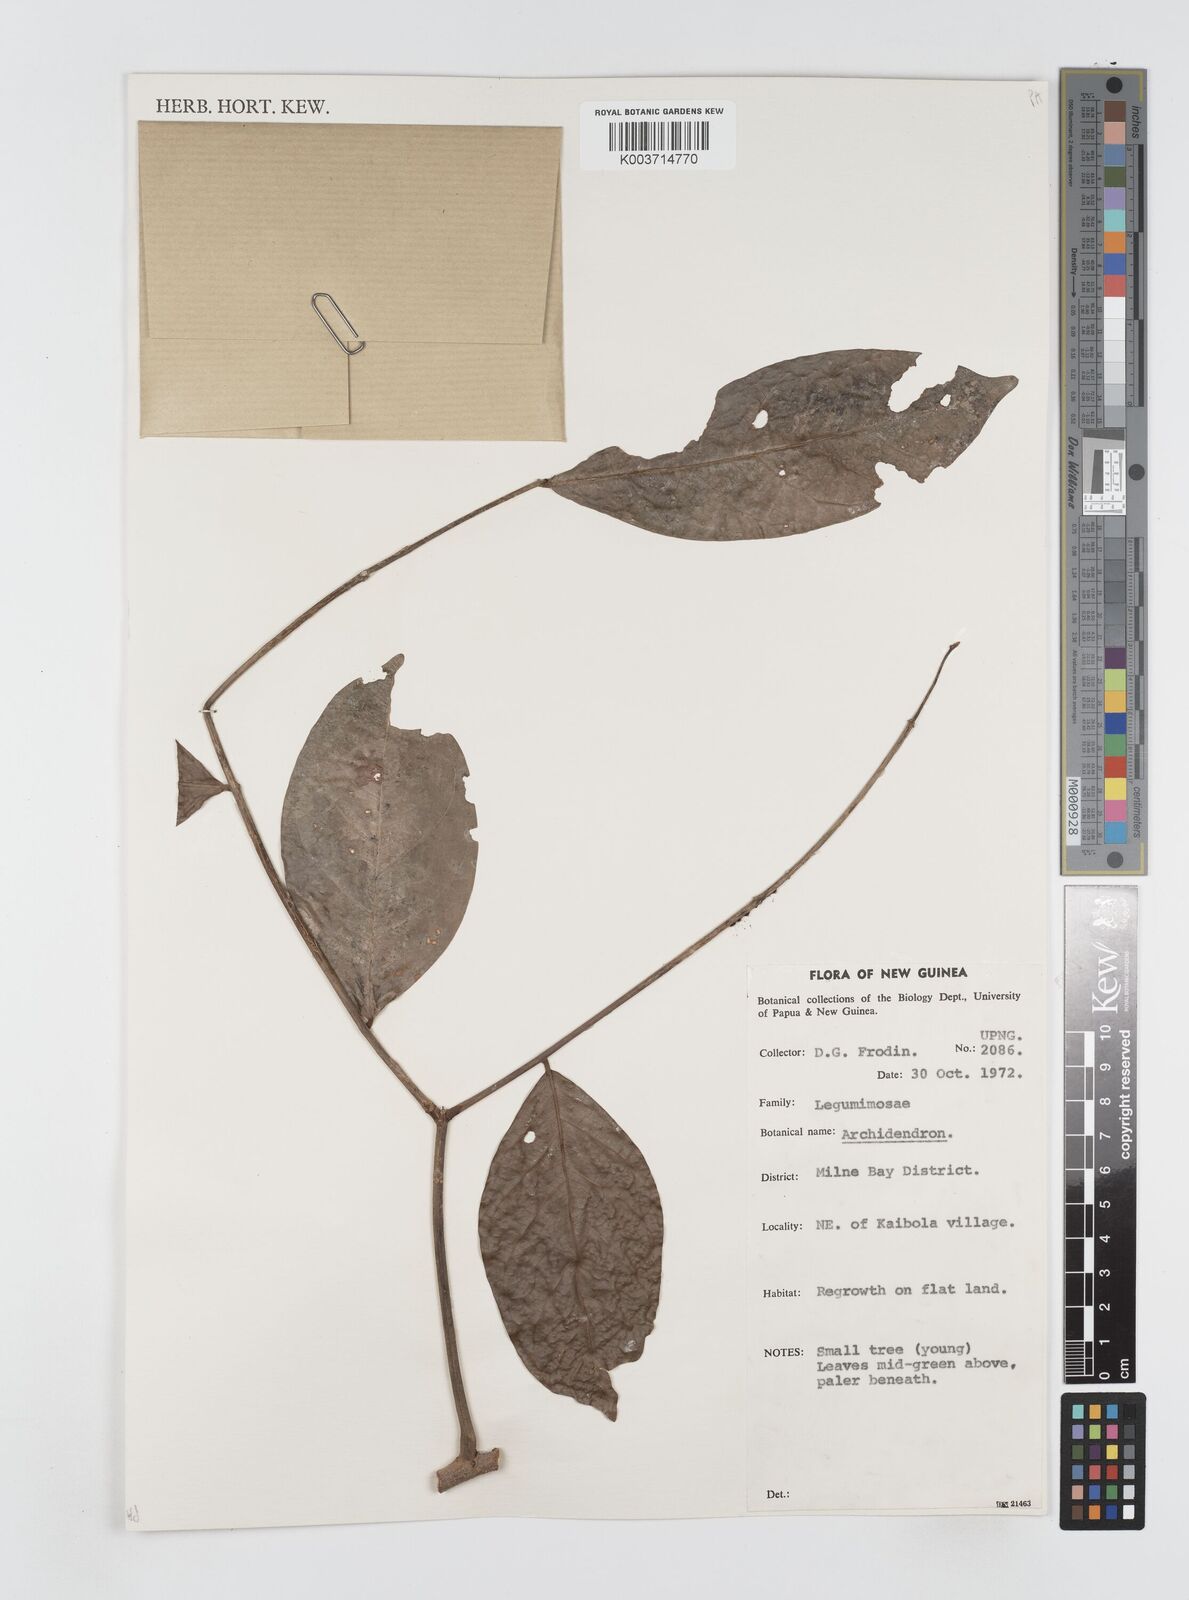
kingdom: Plantae
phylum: Tracheophyta
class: Magnoliopsida
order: Fabales
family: Fabaceae
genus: Archidendron
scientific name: Archidendron
